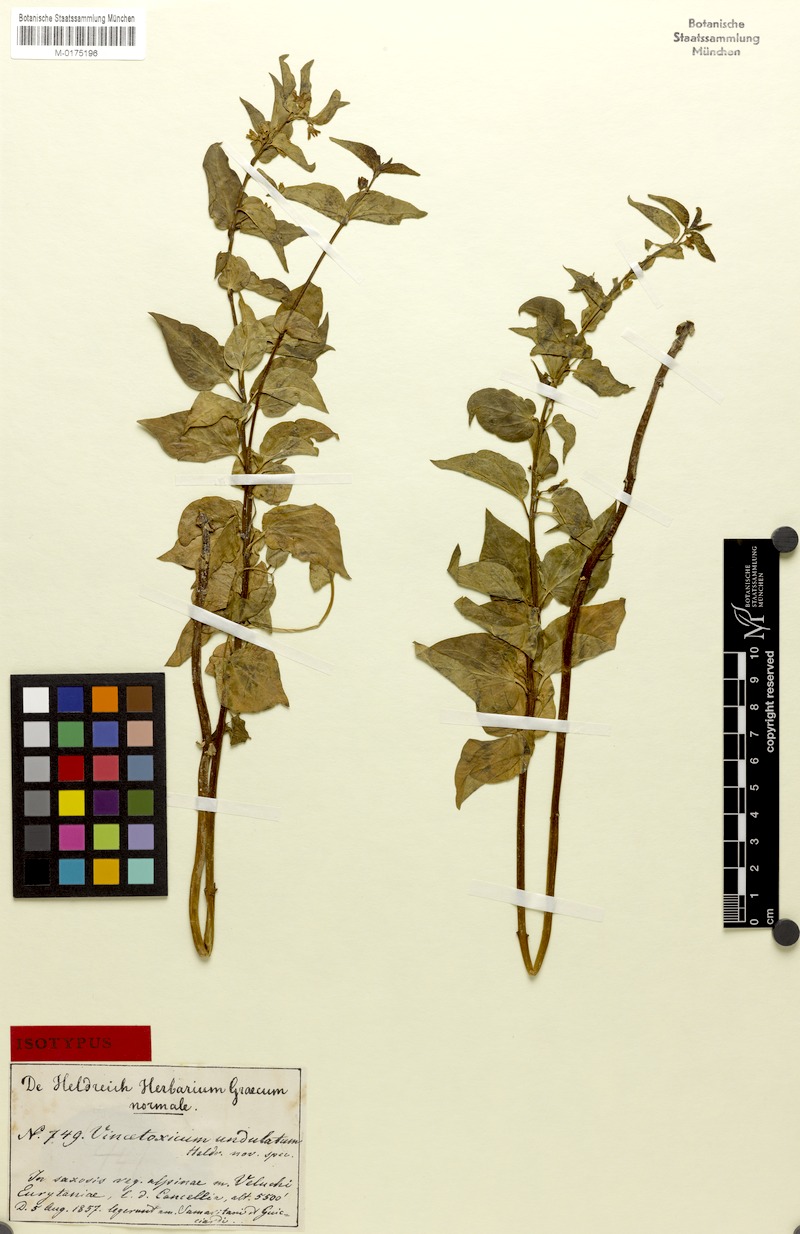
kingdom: Plantae
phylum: Tracheophyta
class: Magnoliopsida
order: Gentianales
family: Apocynaceae
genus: Vincetoxicum
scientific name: Vincetoxicum hirundinaria
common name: White swallowwort
